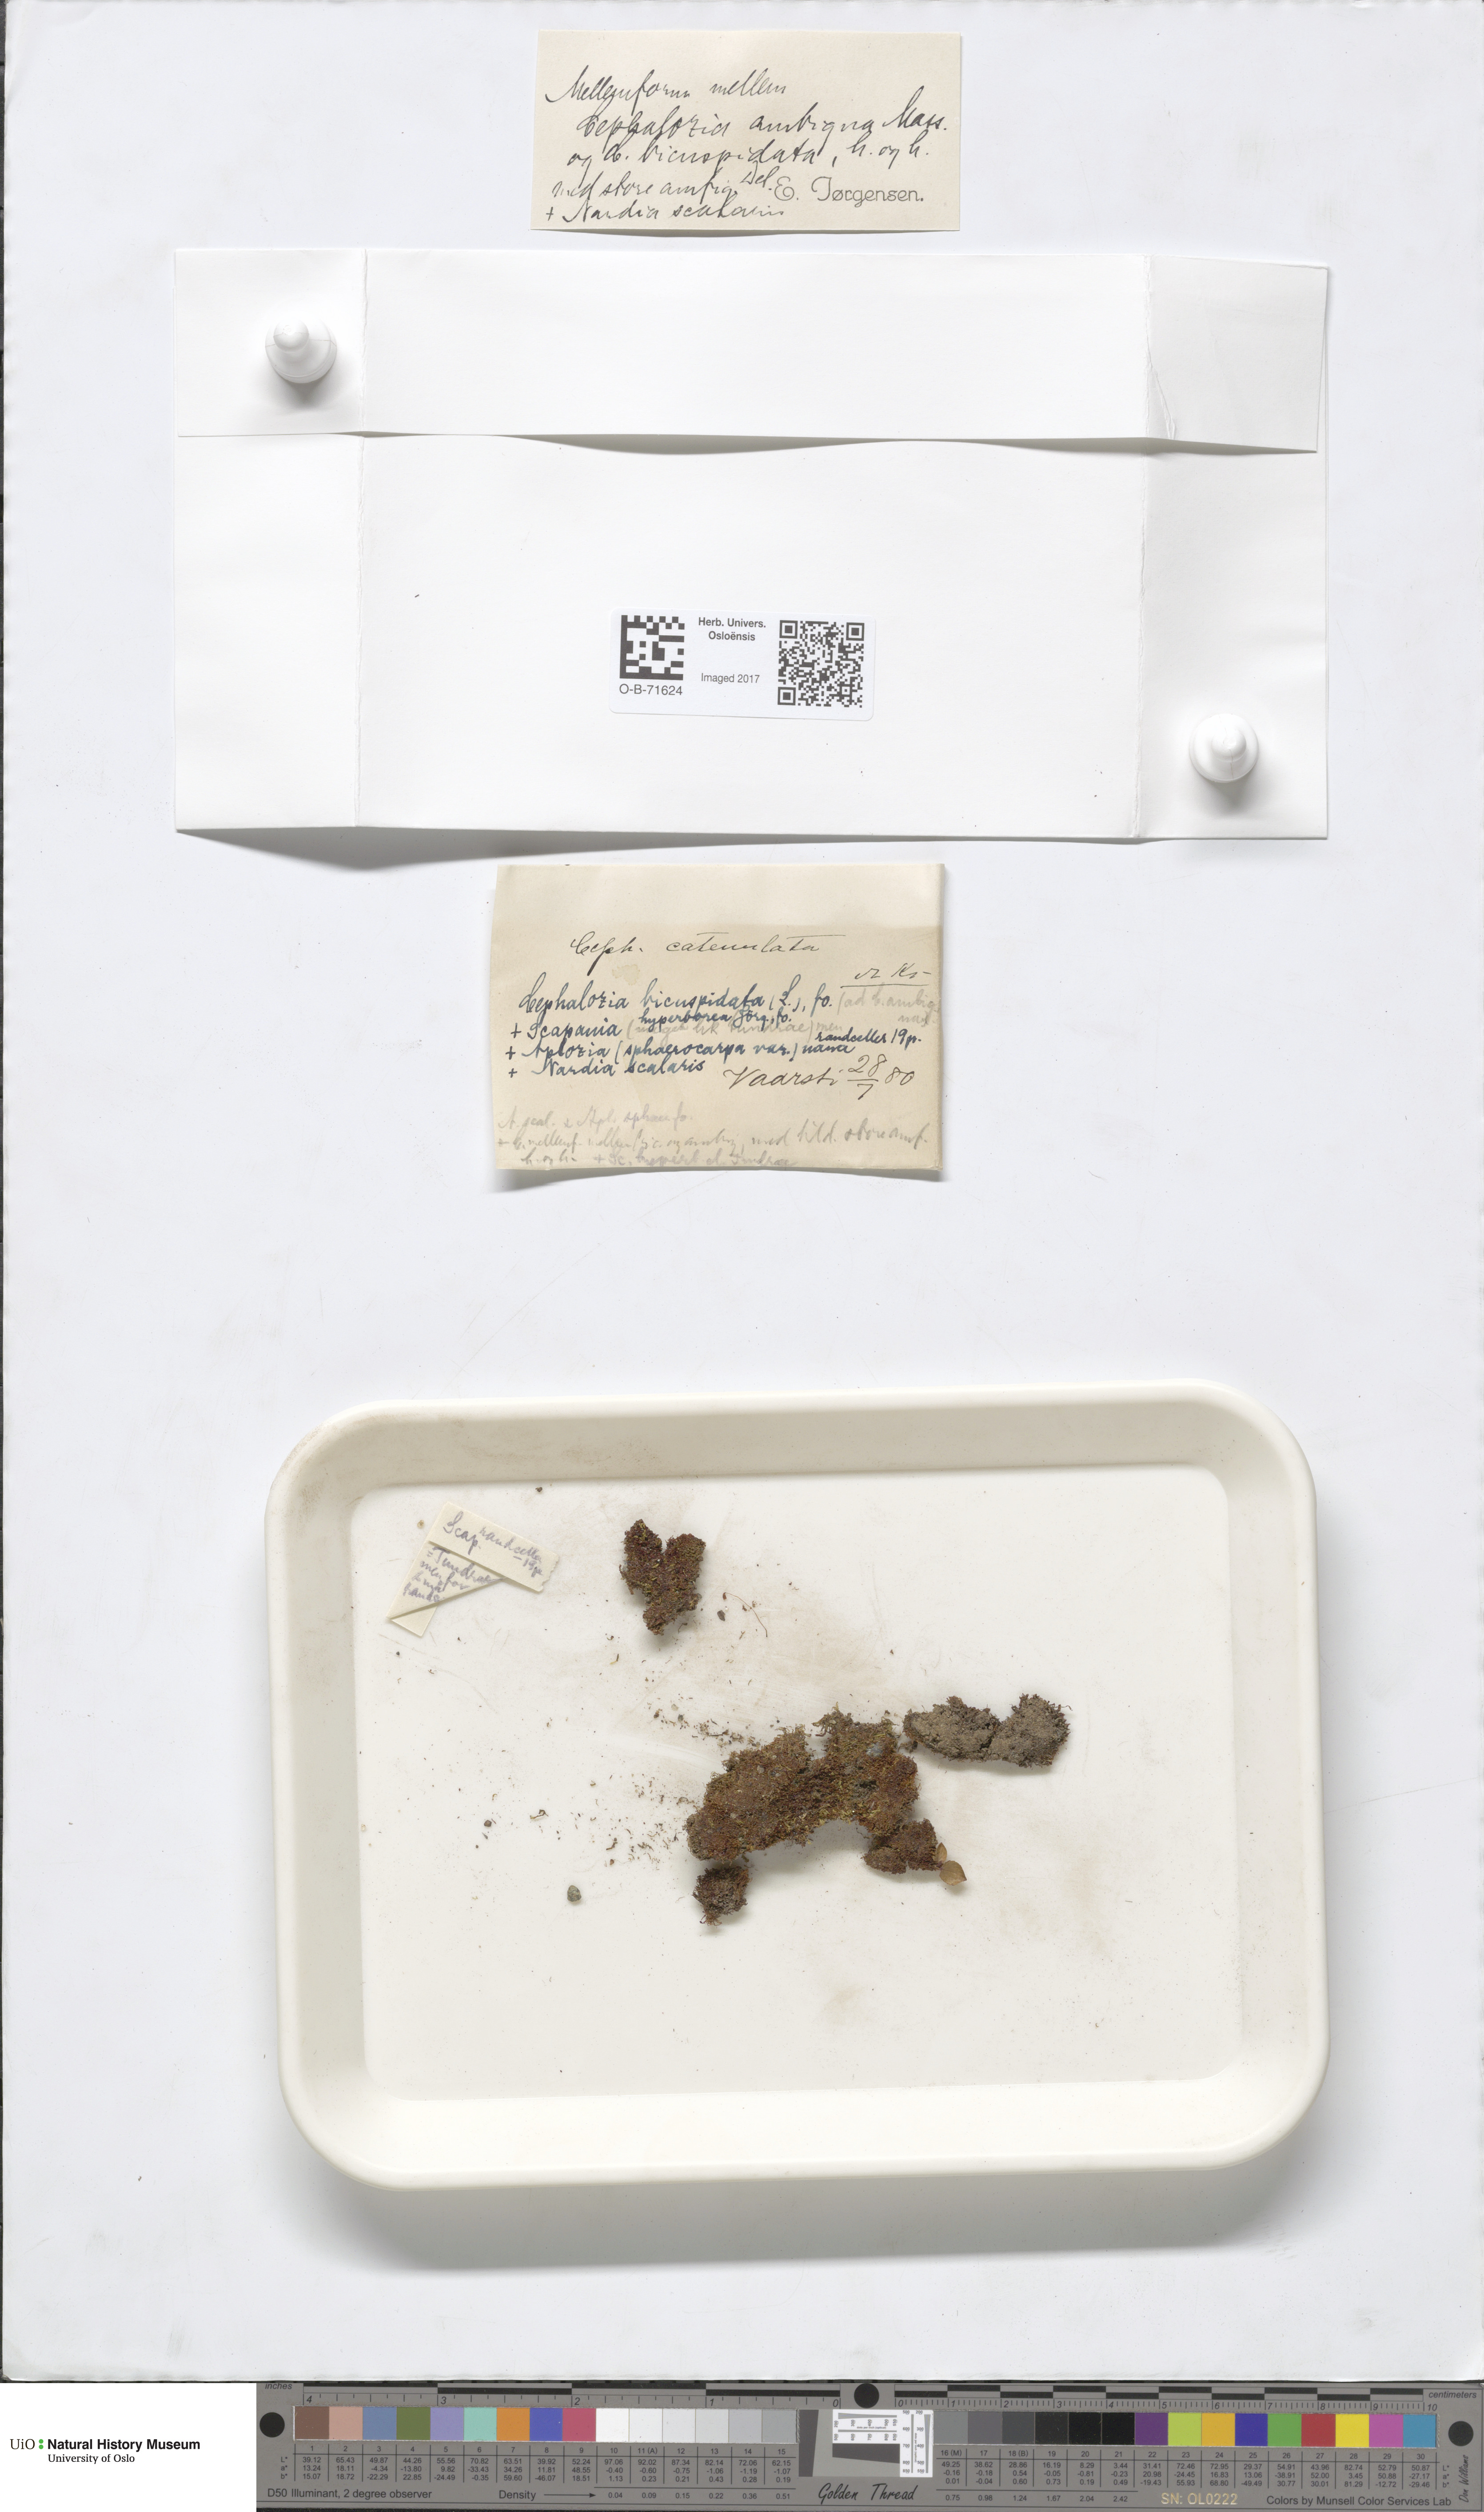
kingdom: Plantae
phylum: Marchantiophyta
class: Jungermanniopsida
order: Jungermanniales
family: Cephaloziaceae
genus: Cephalozia
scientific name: Cephalozia bicuspidata
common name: Two-horned pincerwort
